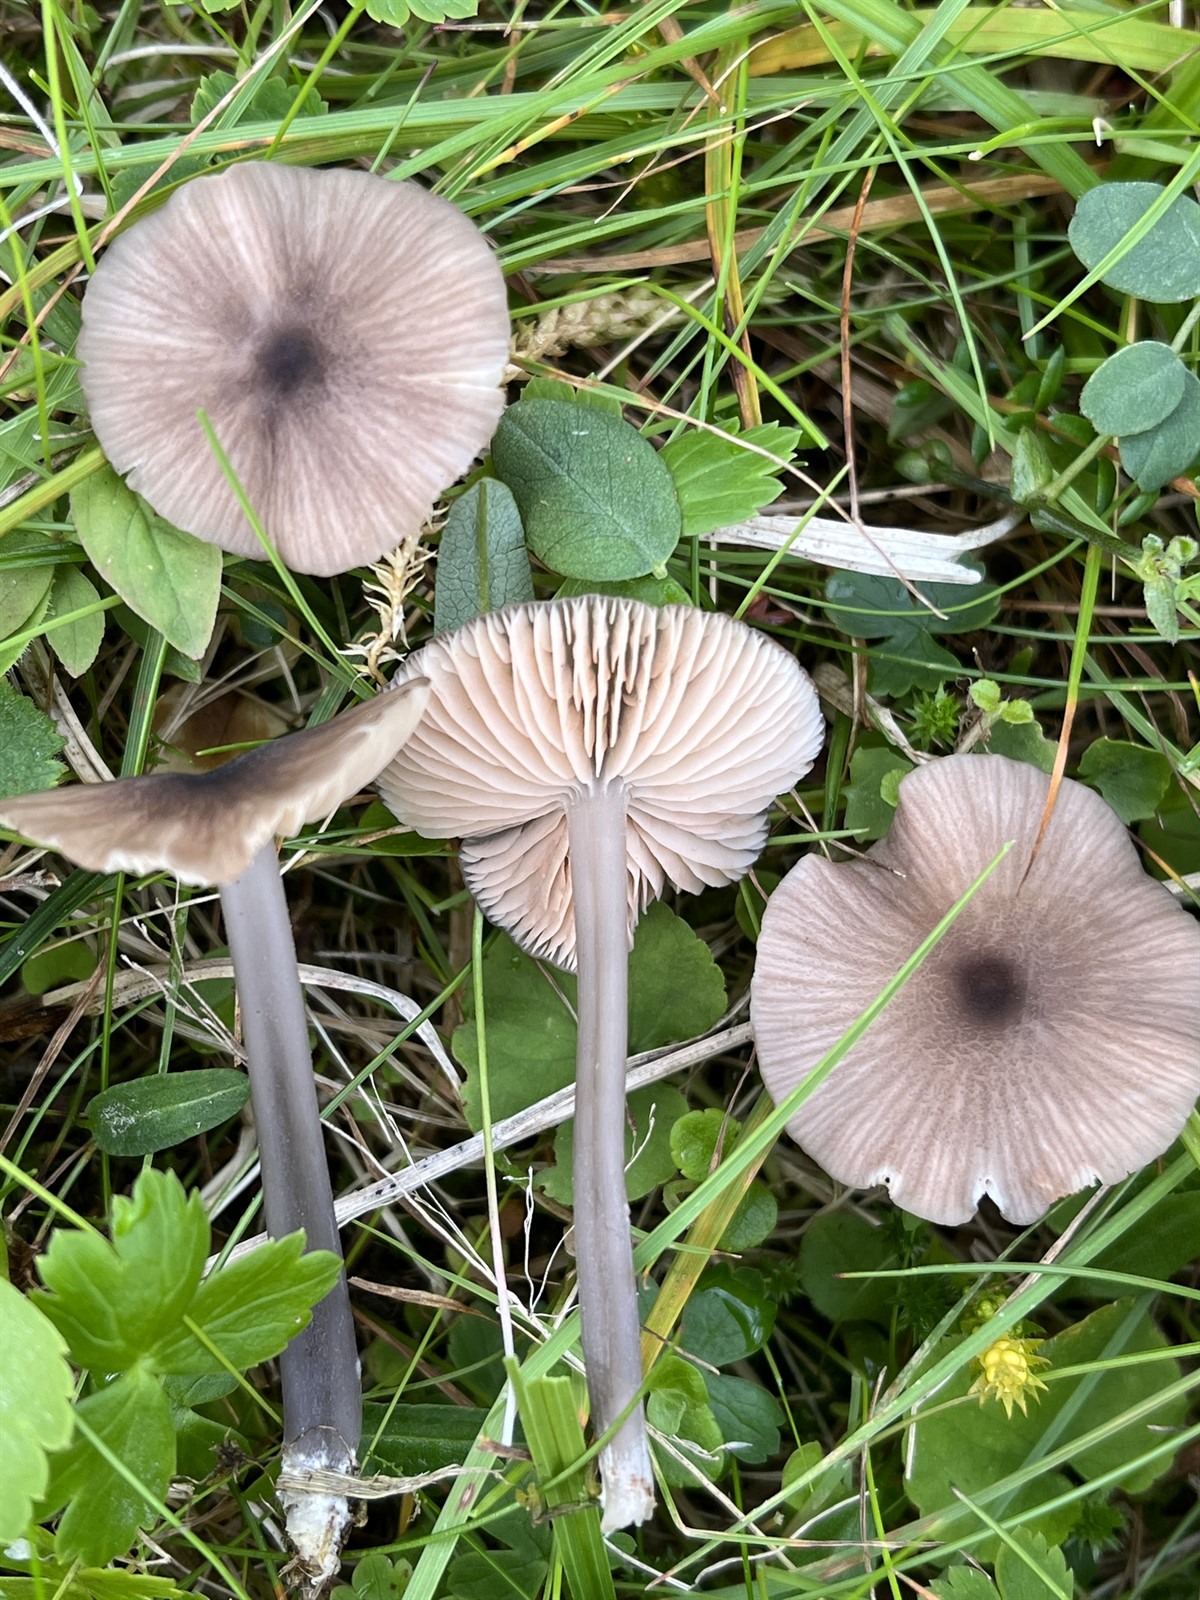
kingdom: Fungi
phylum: Basidiomycota
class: Agaricomycetes
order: Agaricales
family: Entolomataceae
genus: Entoloma
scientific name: Entoloma mutabilipes
